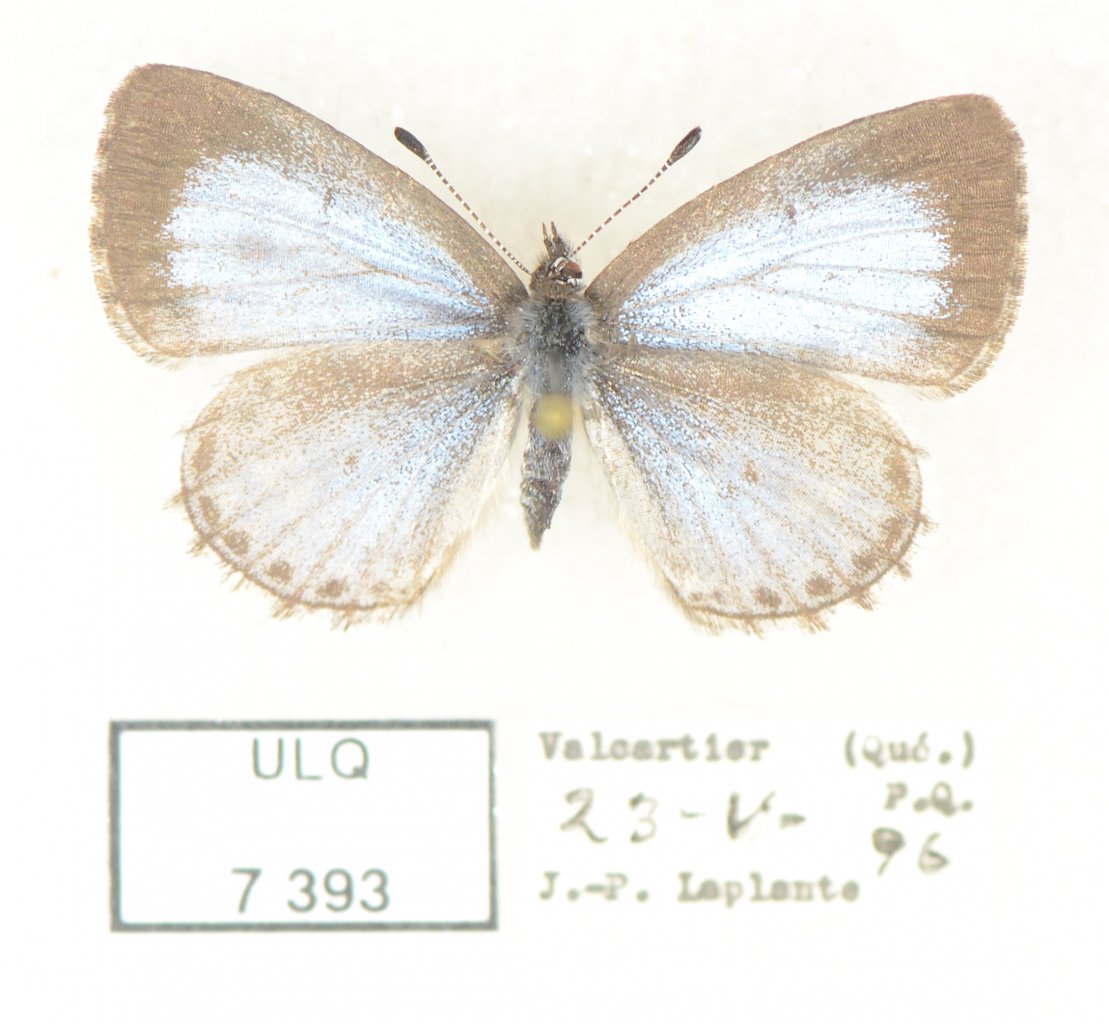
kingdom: Animalia
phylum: Arthropoda
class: Insecta
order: Lepidoptera
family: Lycaenidae
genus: Celastrina
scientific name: Celastrina lucia
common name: Northern Spring Azure
